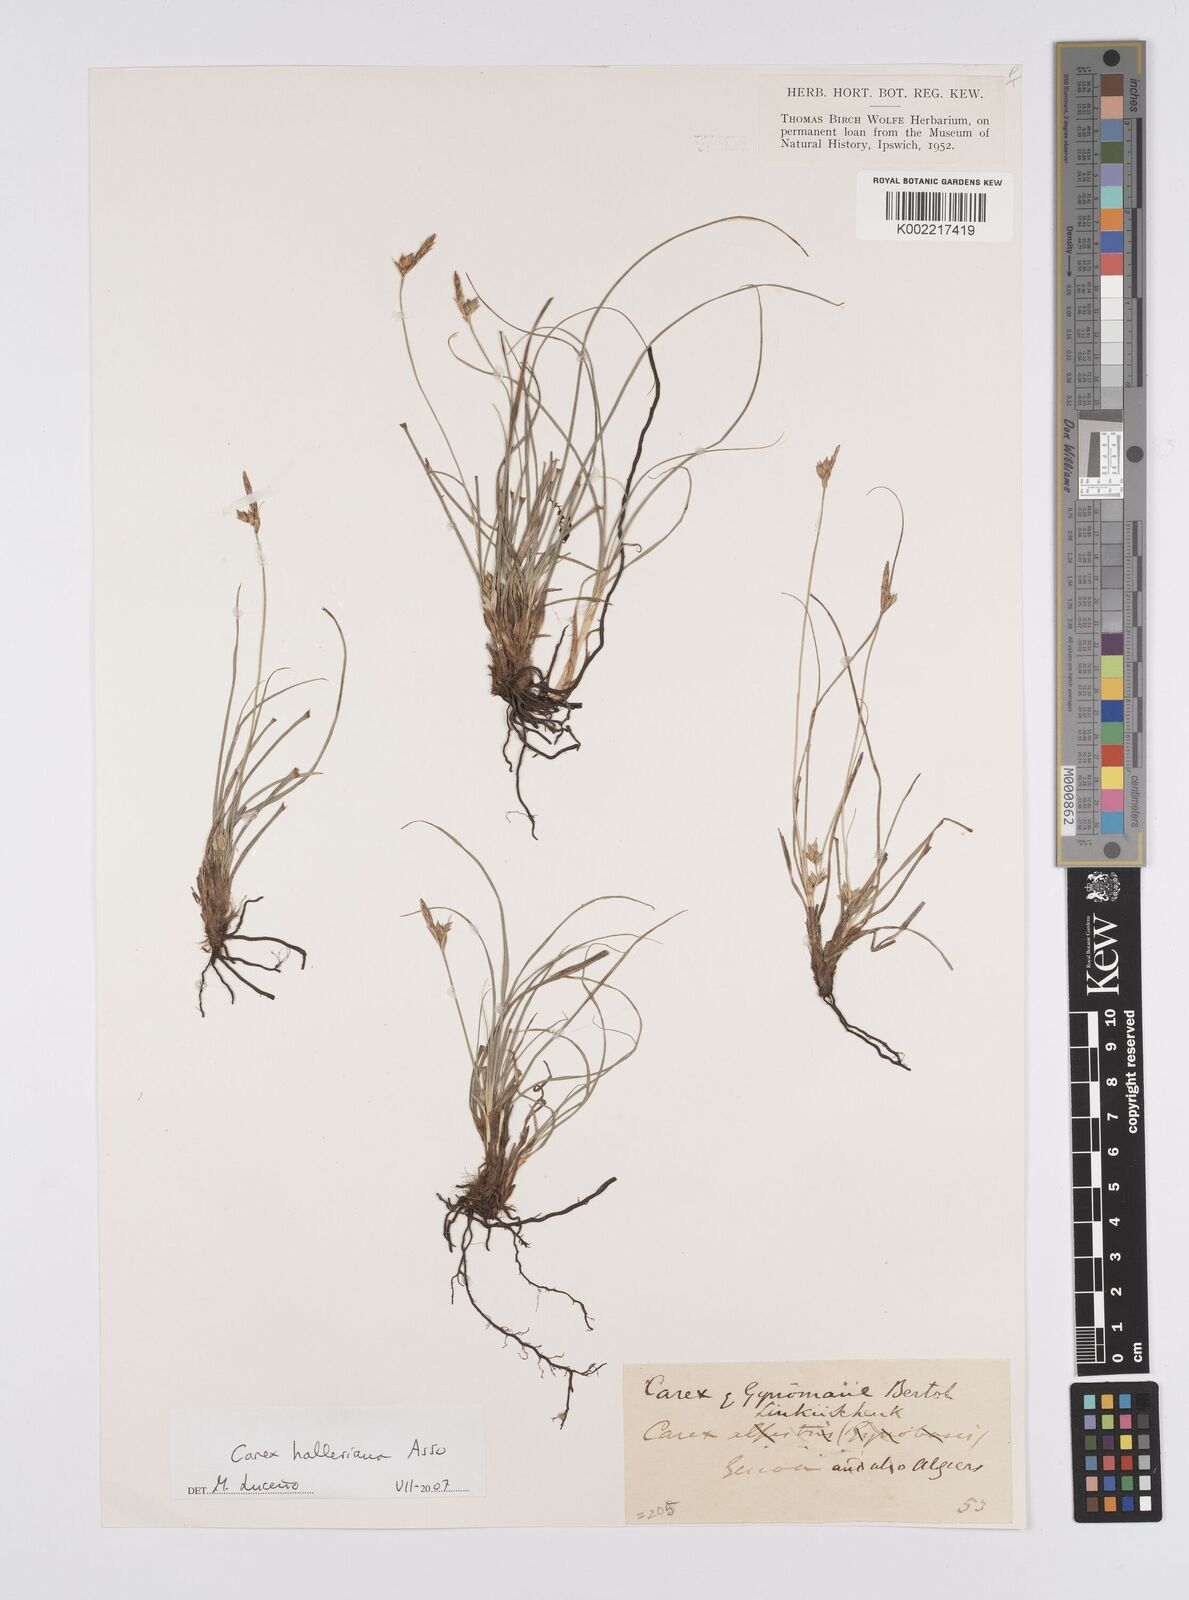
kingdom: Plantae
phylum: Tracheophyta
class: Liliopsida
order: Poales
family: Cyperaceae
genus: Carex
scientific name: Carex halleriana
